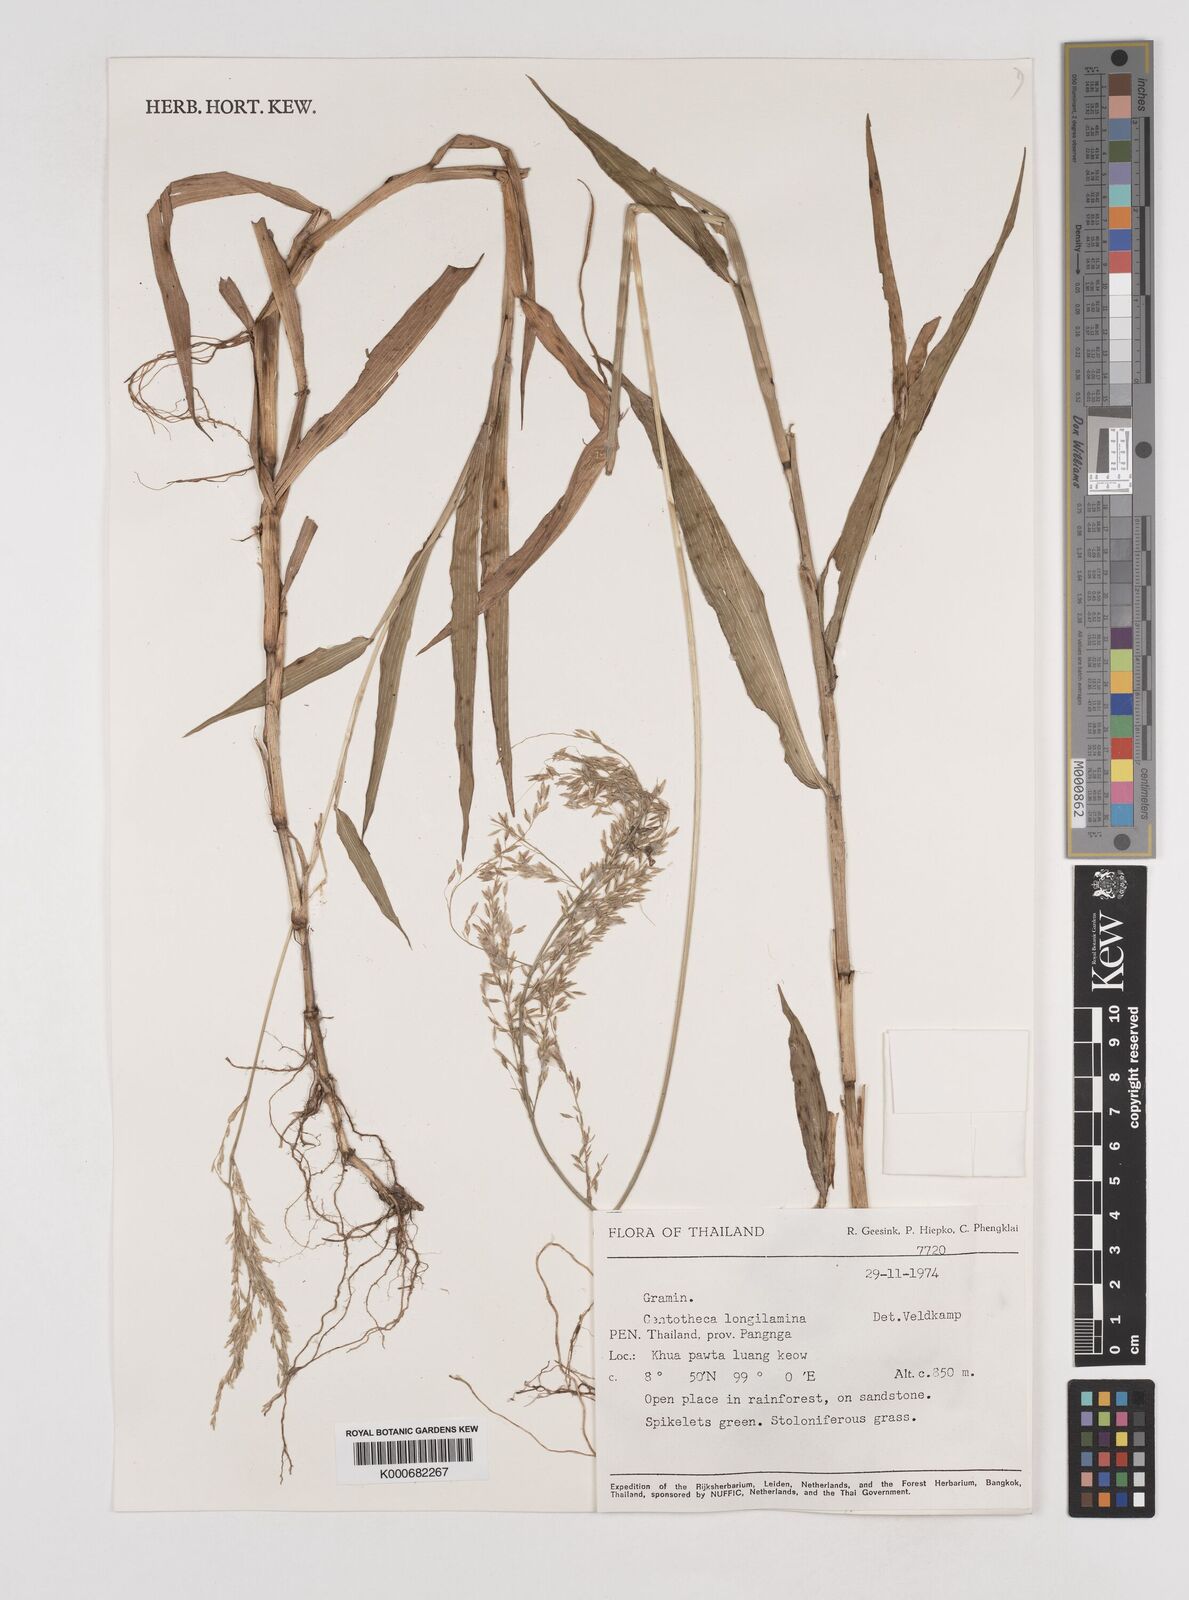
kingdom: Plantae
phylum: Tracheophyta
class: Liliopsida
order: Poales
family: Poaceae
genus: Centotheca
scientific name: Centotheca lappacea
